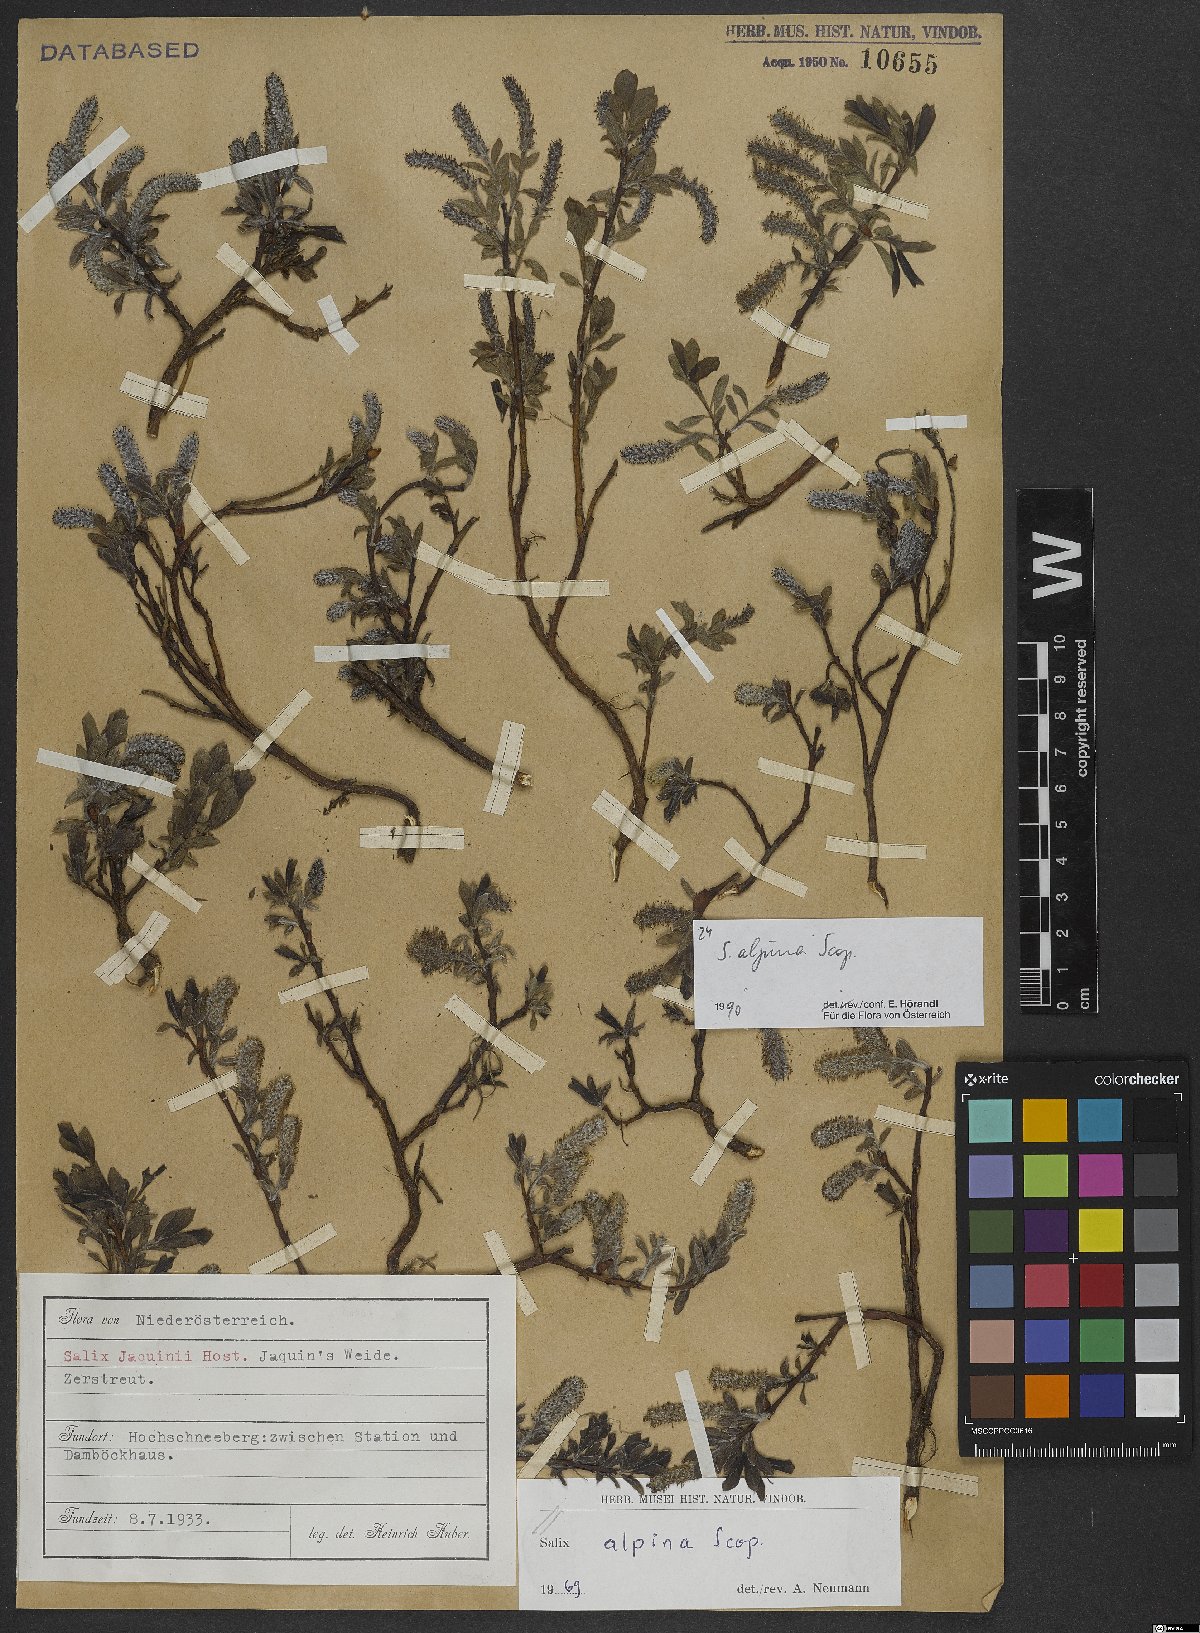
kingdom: Plantae
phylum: Tracheophyta
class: Magnoliopsida
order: Malpighiales
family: Salicaceae
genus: Salix
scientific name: Salix alpina
